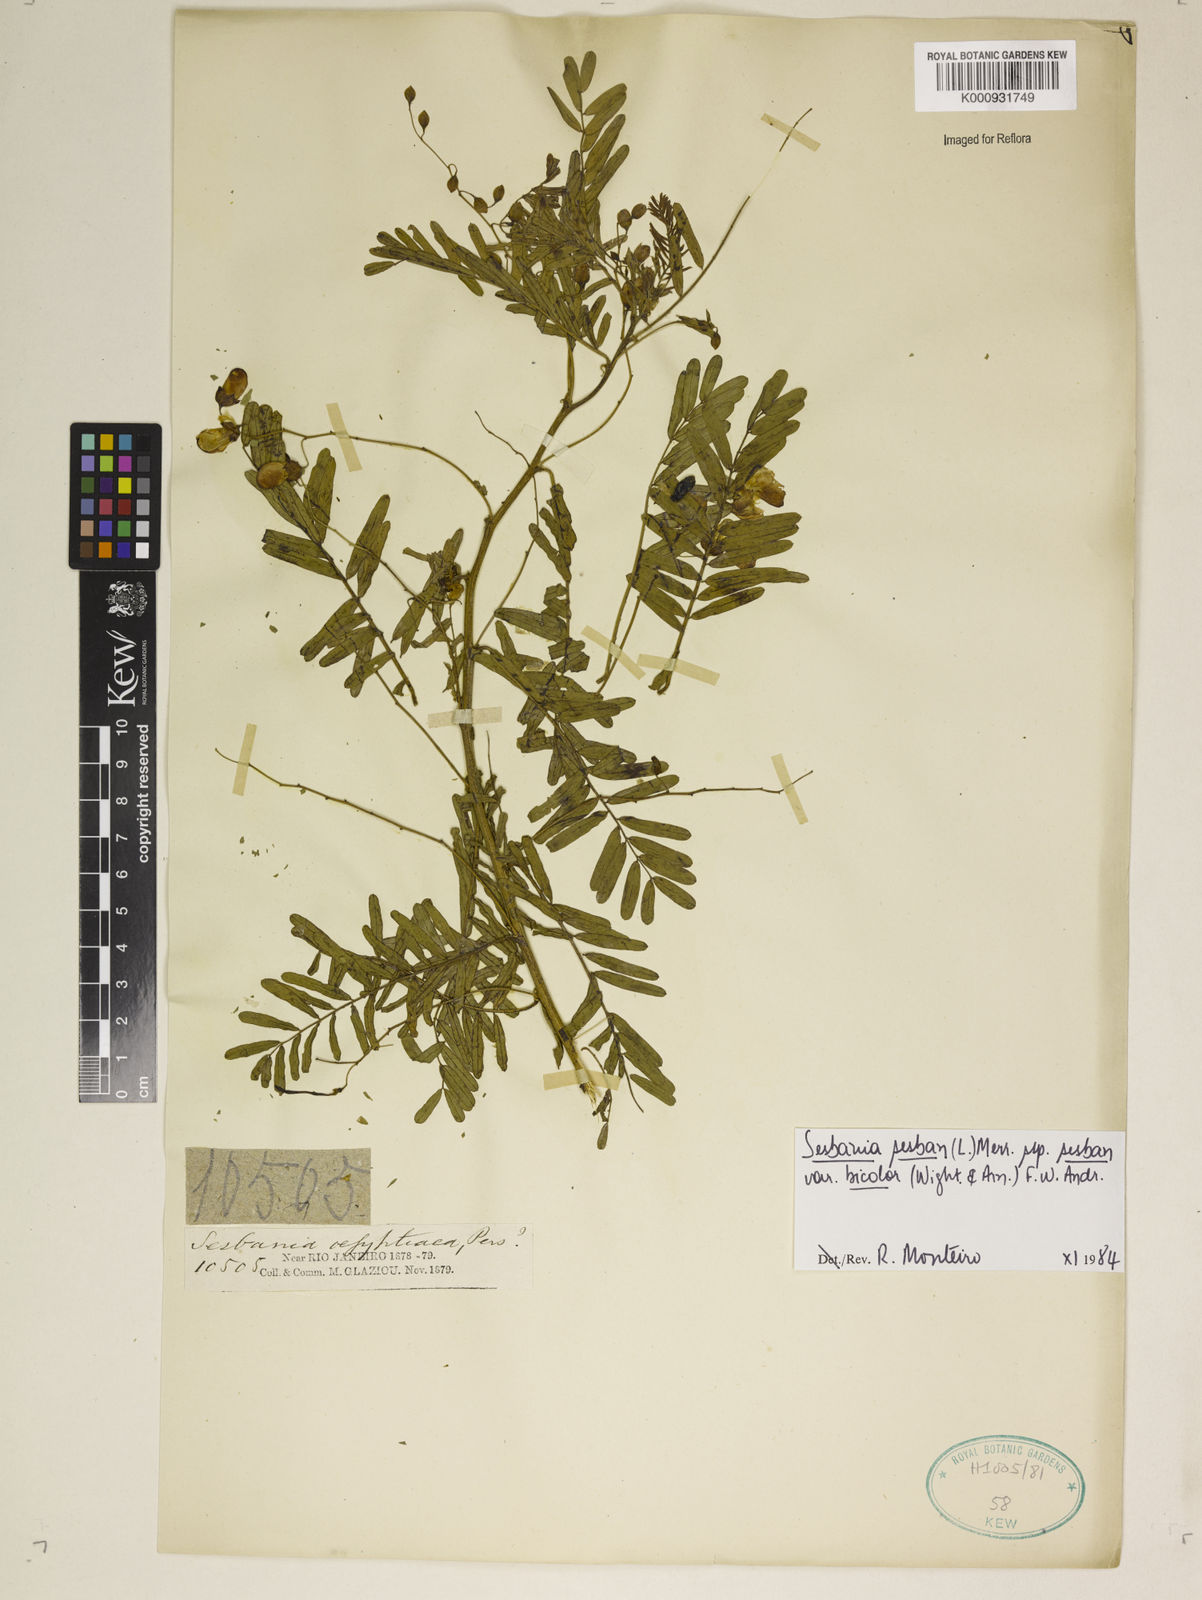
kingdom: Plantae
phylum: Tracheophyta
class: Magnoliopsida
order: Fabales
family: Fabaceae
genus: Sesbania
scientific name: Sesbania
